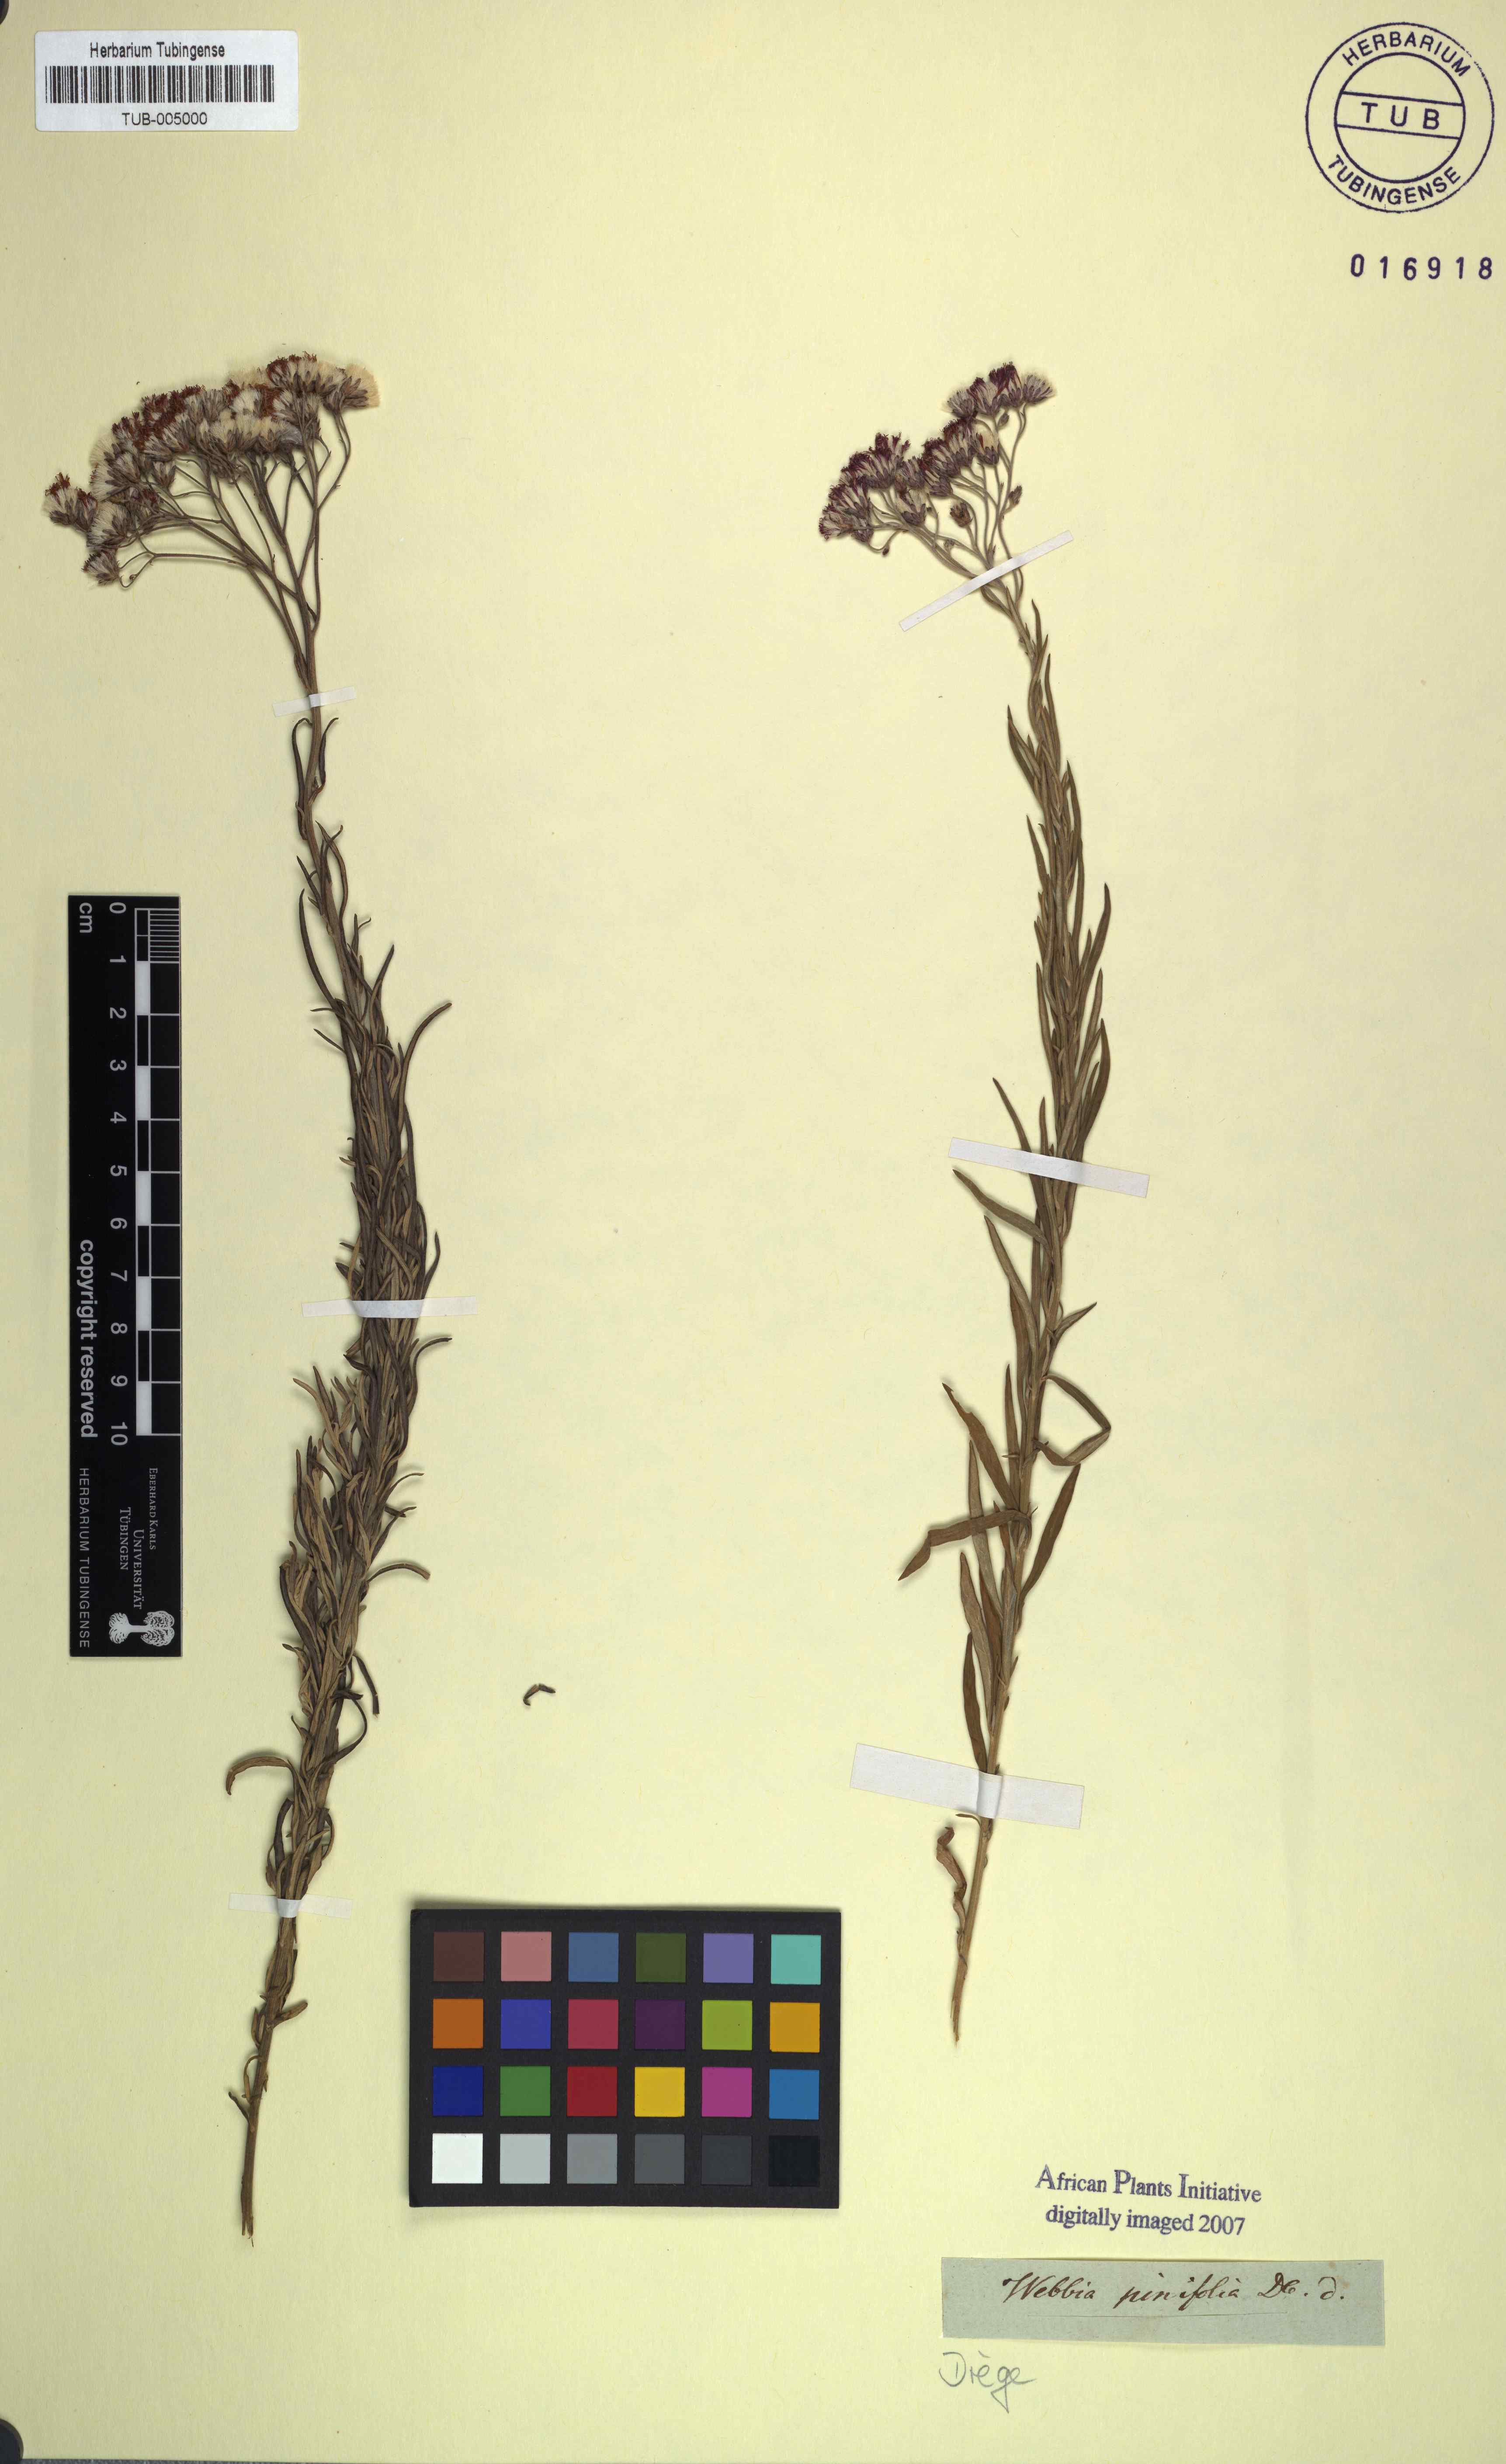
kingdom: Plantae
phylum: Tracheophyta
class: Magnoliopsida
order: Asterales
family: Asteraceae
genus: Hilliardiella
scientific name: Hilliardiella capensis
